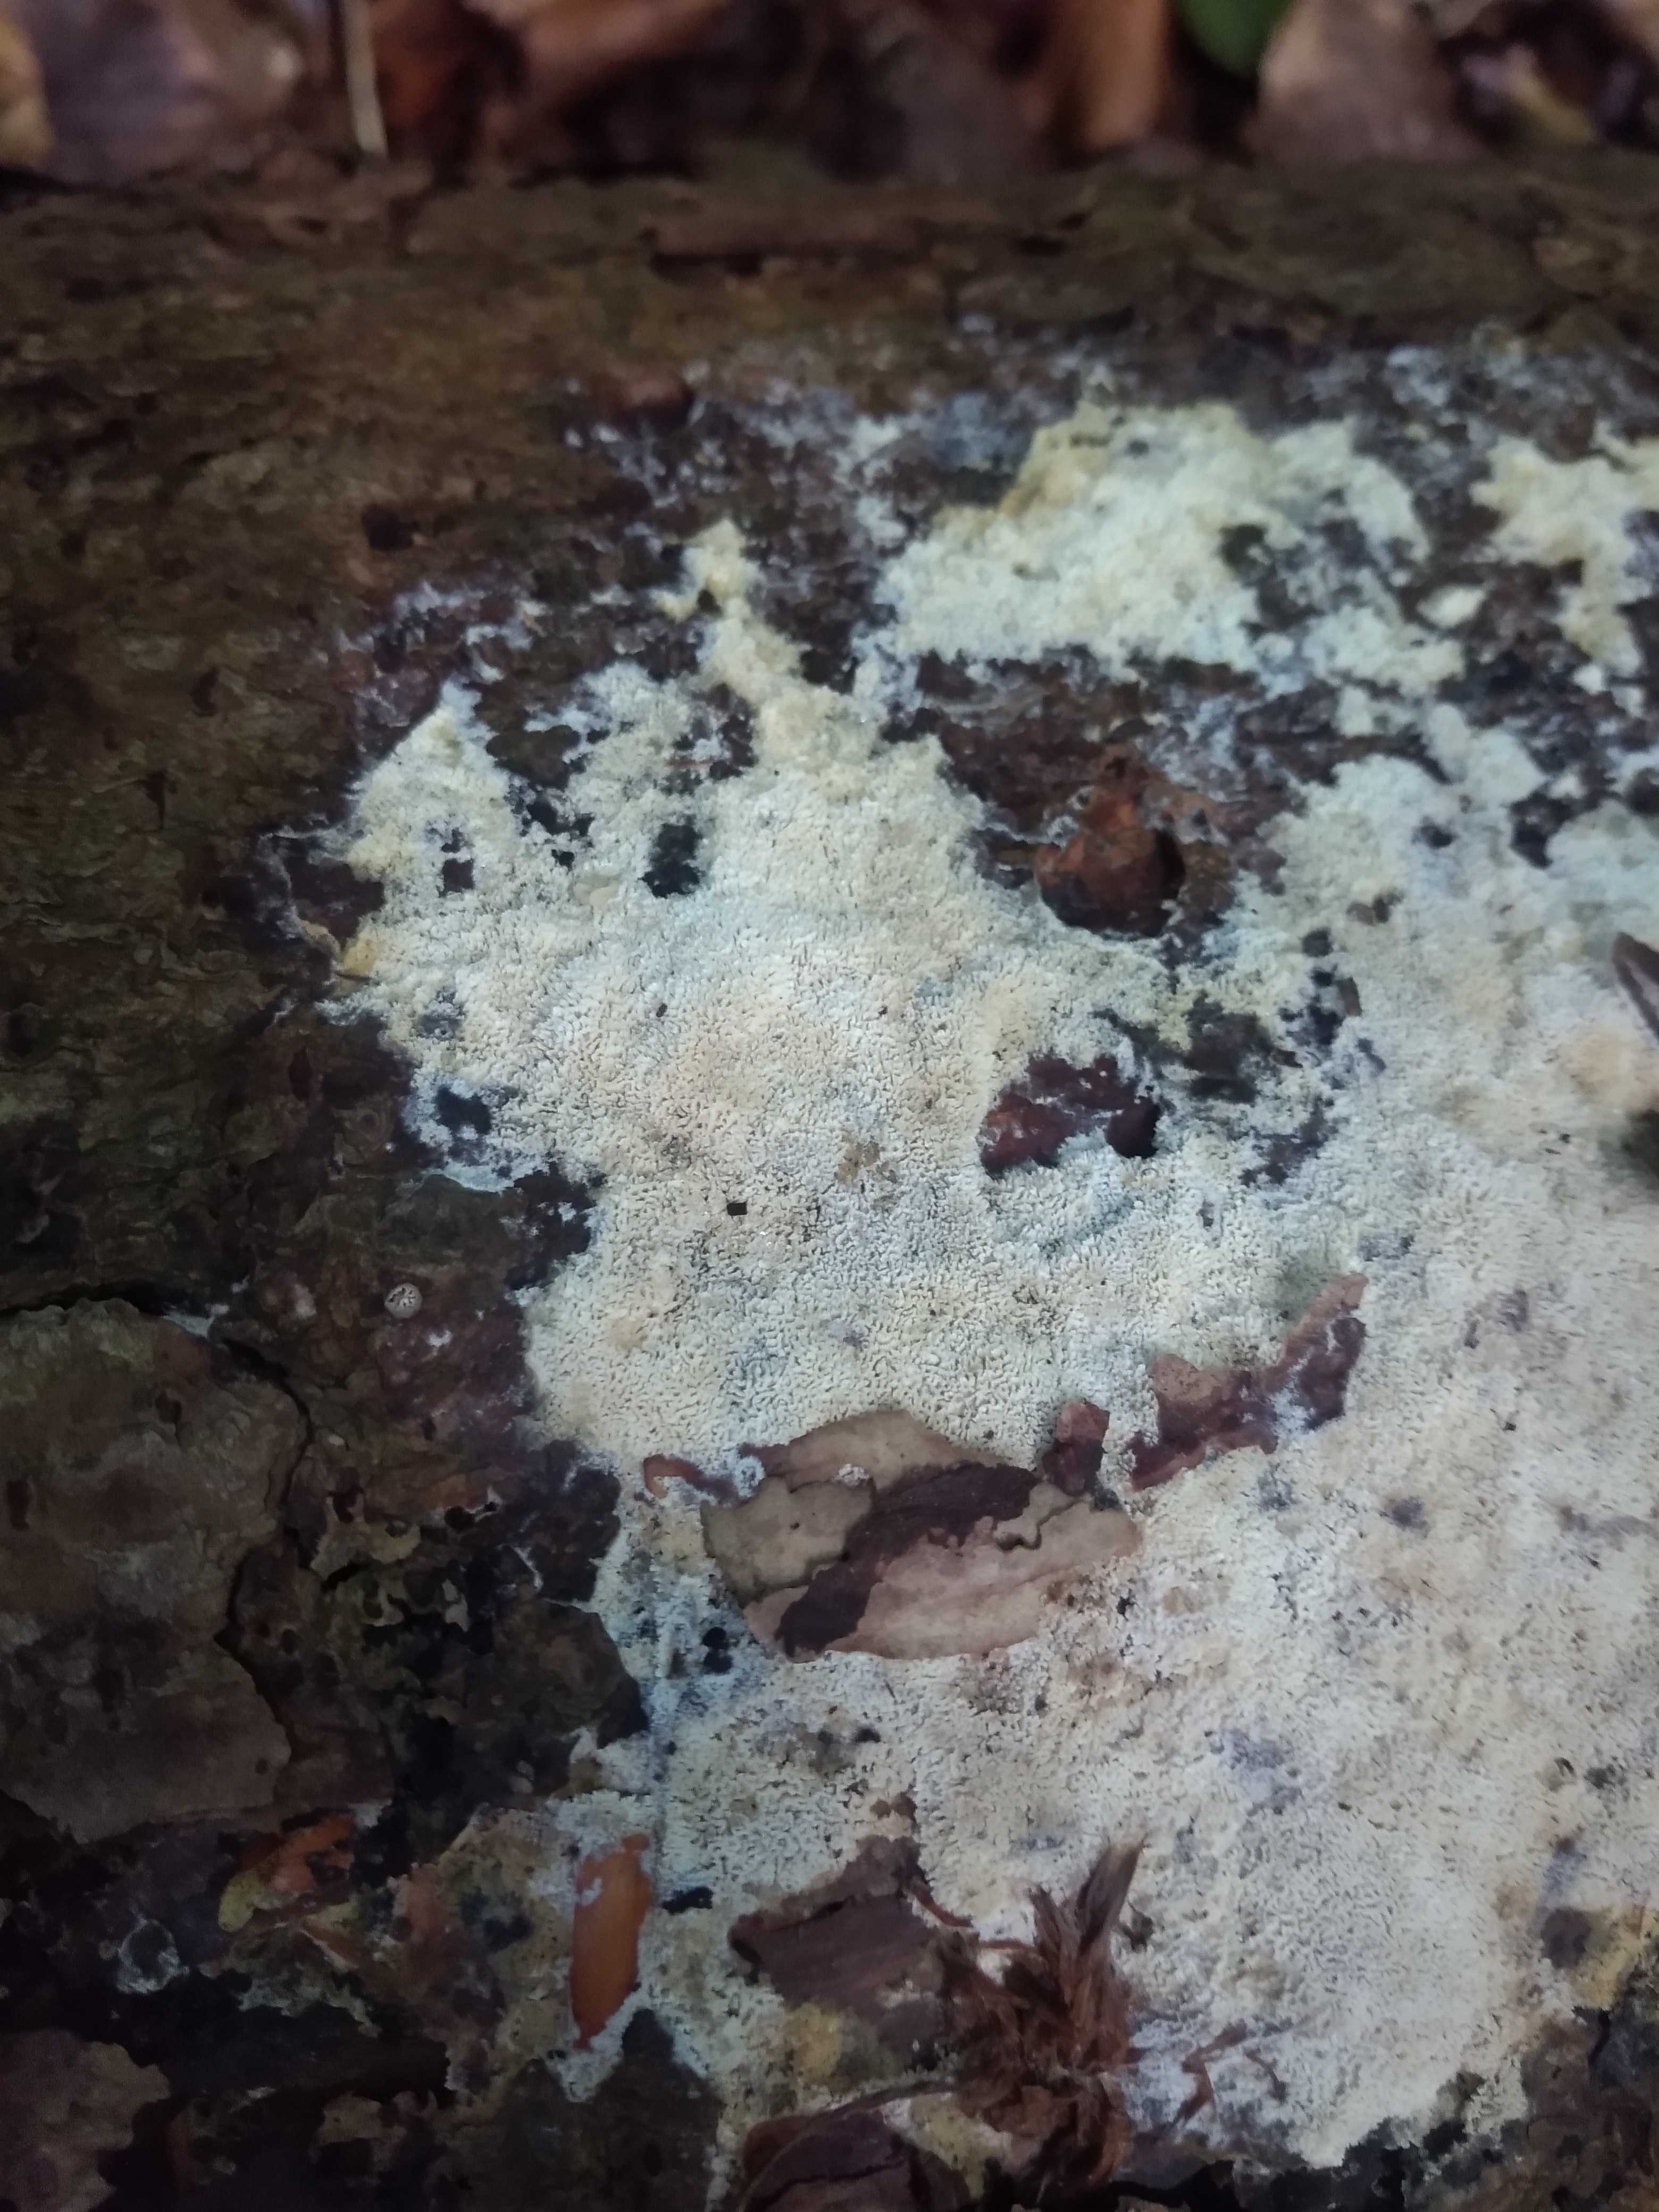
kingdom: Fungi
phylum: Basidiomycota
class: Agaricomycetes
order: Hymenochaetales
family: Schizoporaceae
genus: Xylodon
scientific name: Xylodon subtropicus
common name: labyrint-tandsvamp
